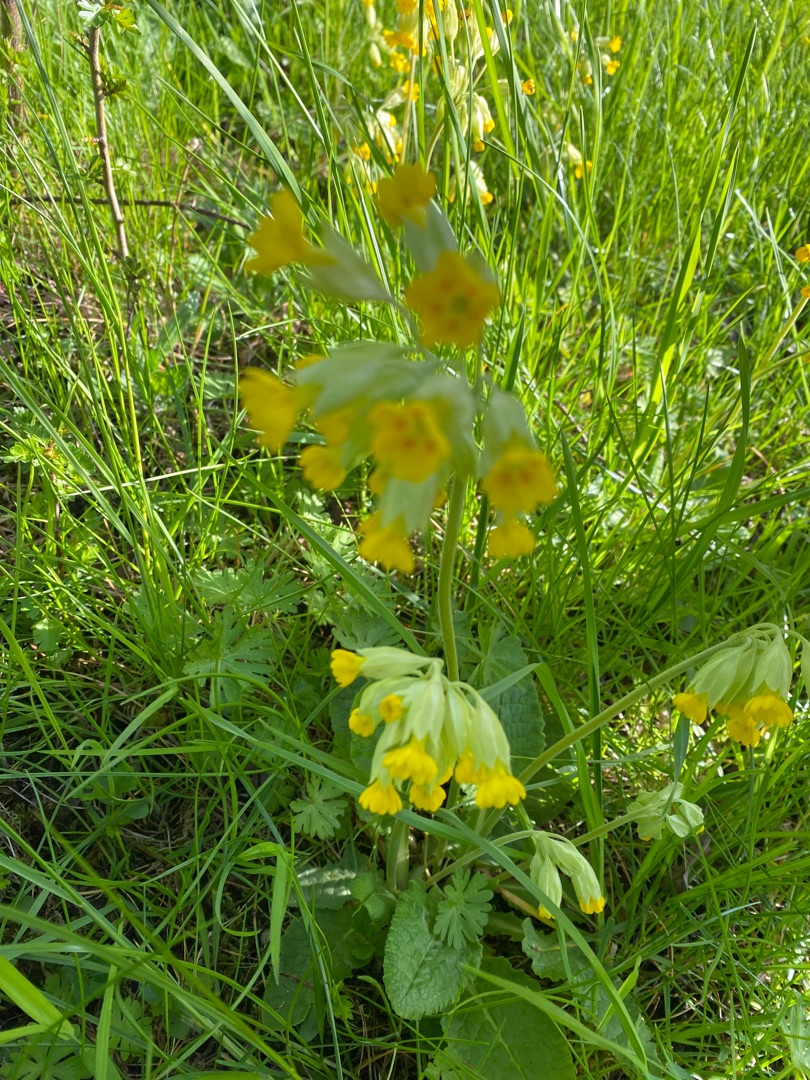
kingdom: Plantae
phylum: Tracheophyta
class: Magnoliopsida
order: Ericales
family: Primulaceae
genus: Primula
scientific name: Primula veris
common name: Hulkravet kodriver
